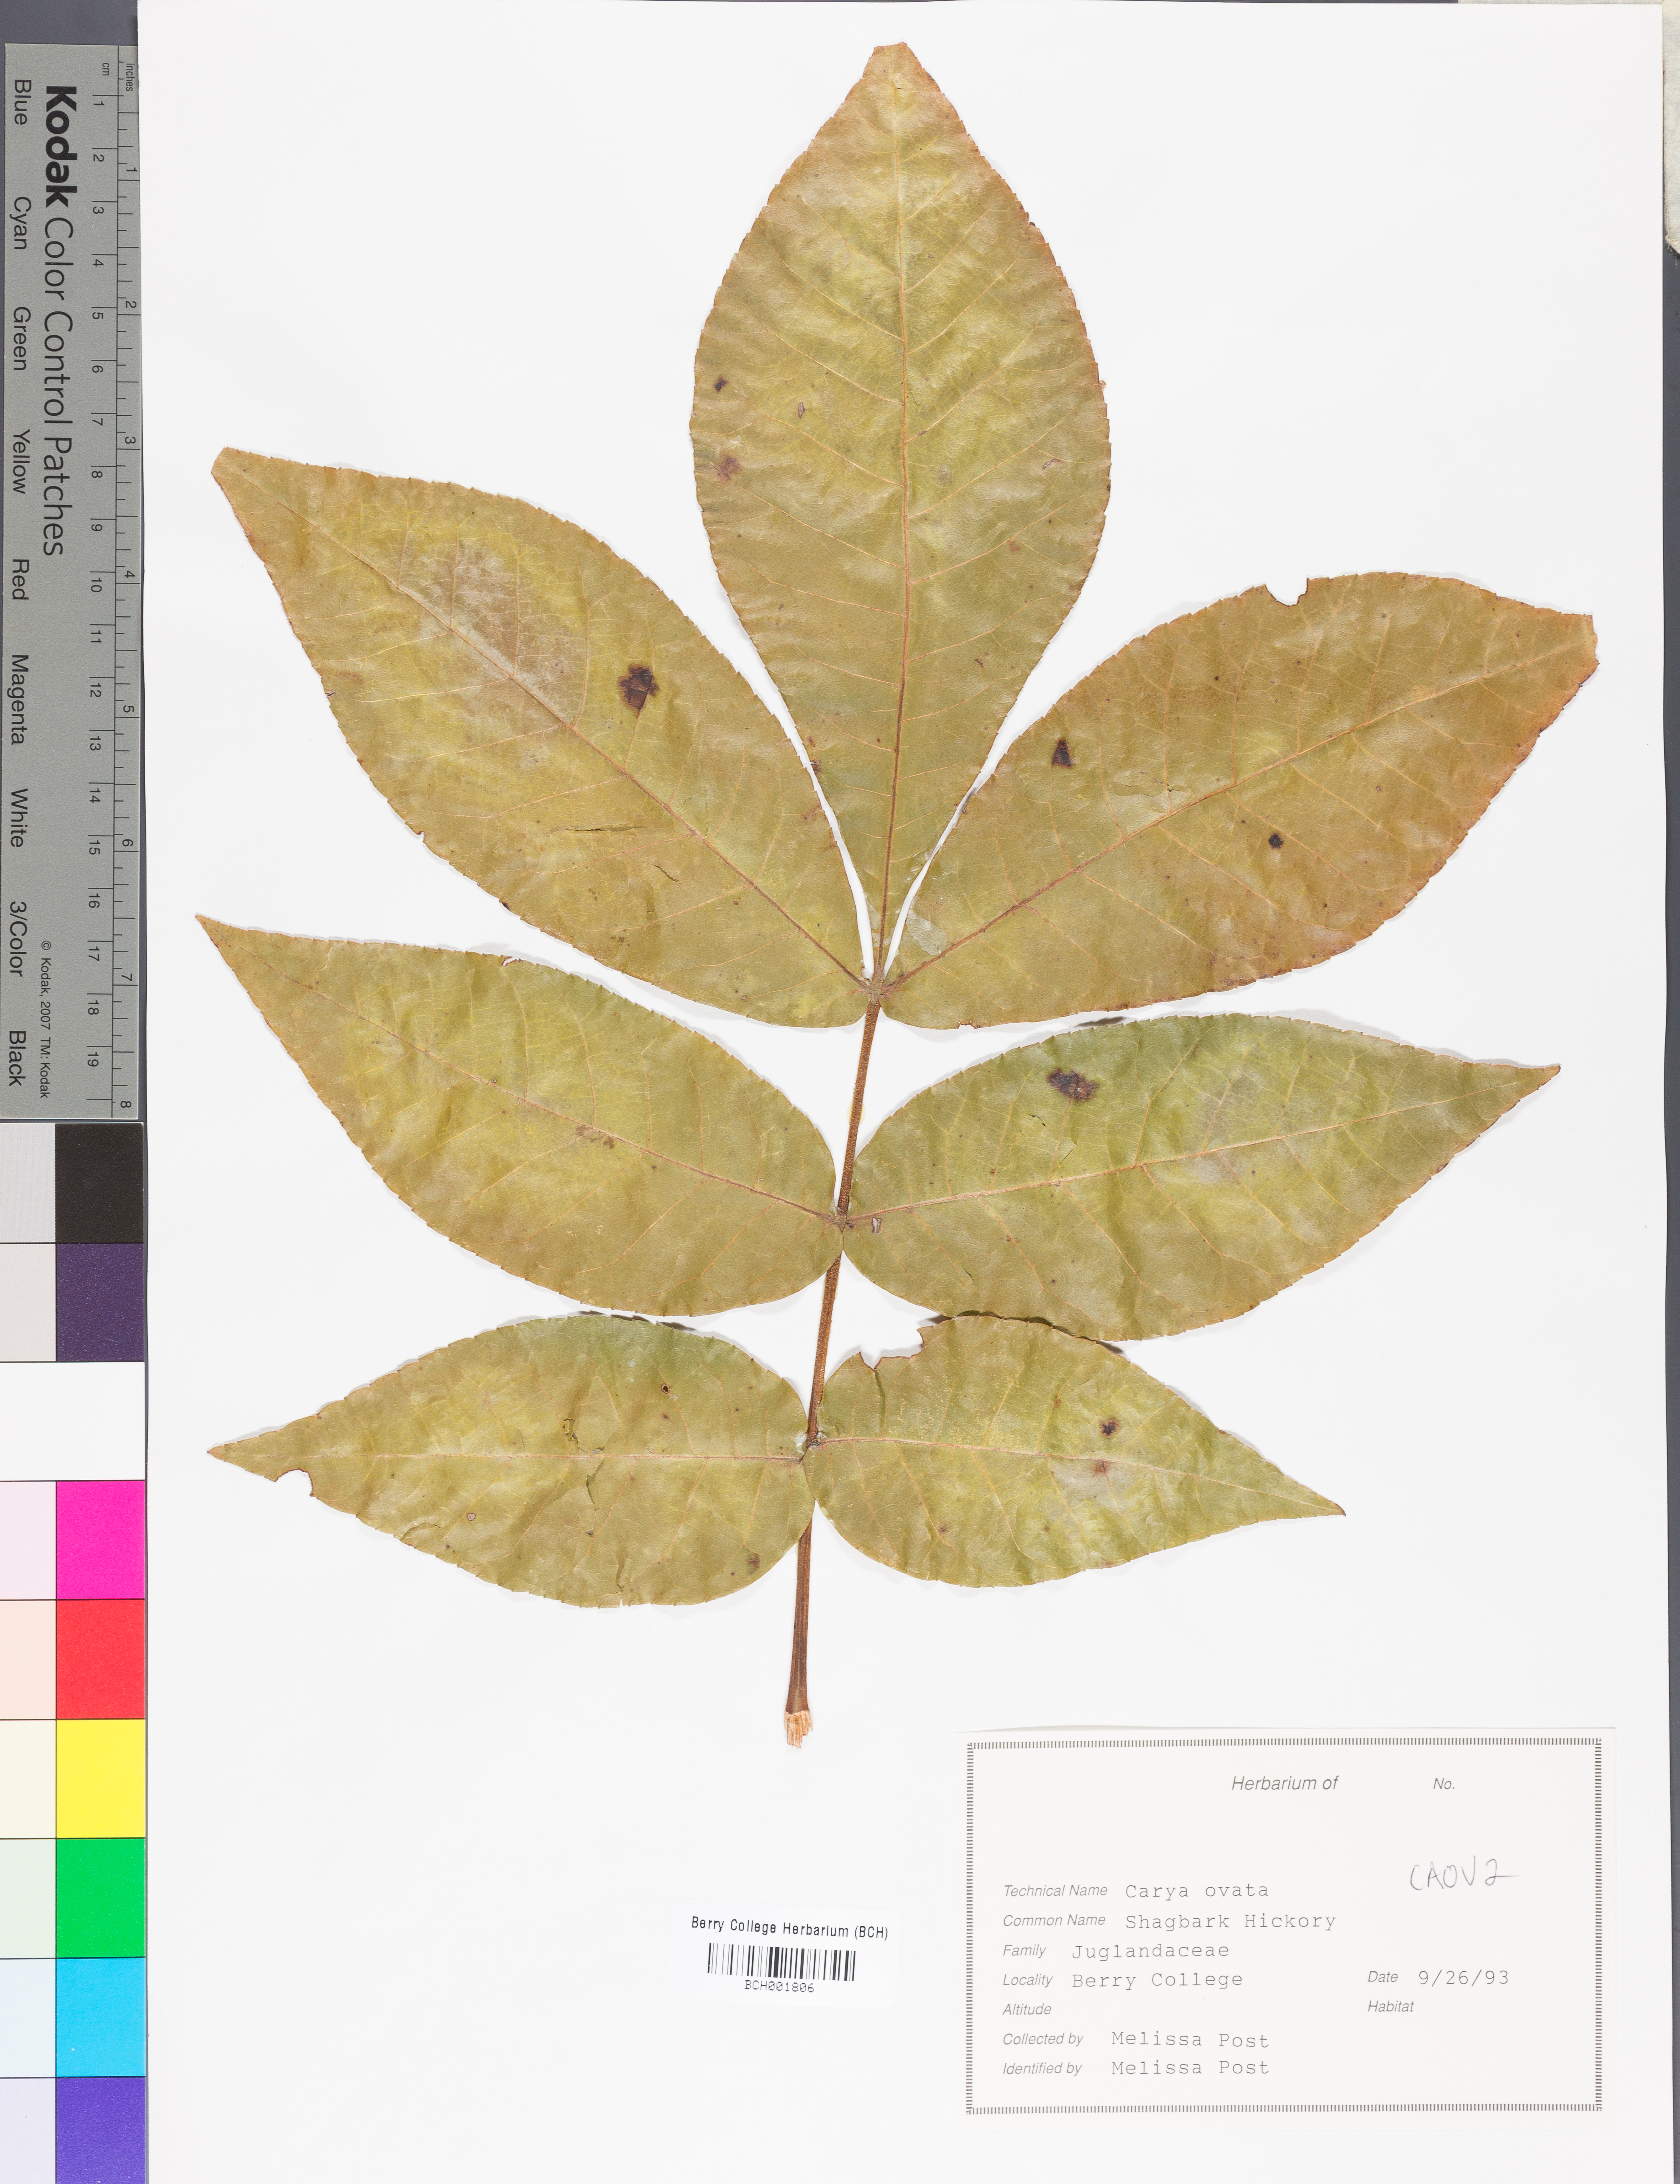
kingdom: Plantae
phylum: Tracheophyta
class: Magnoliopsida
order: Fagales
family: Juglandaceae
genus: Carya
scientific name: Carya ovata
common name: Shagbark hickory
